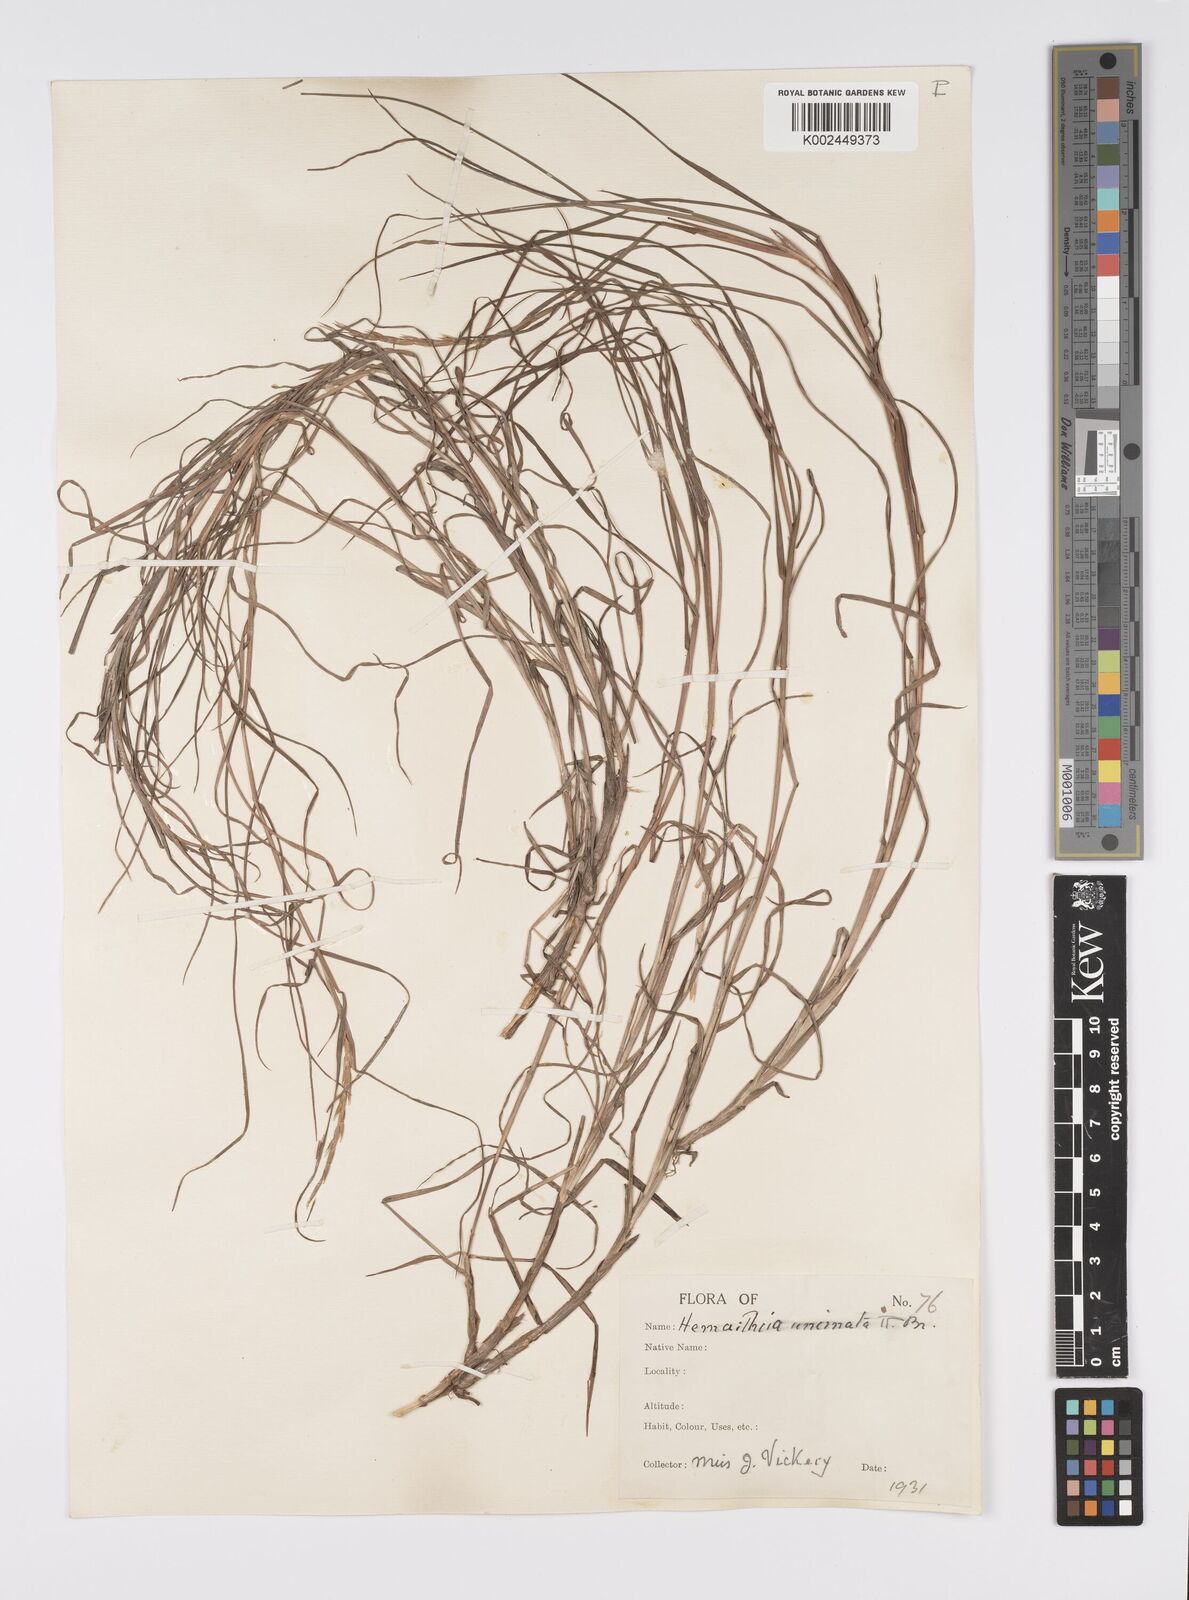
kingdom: Plantae
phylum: Tracheophyta
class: Liliopsida
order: Poales
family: Poaceae
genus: Hemarthria
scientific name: Hemarthria uncinata
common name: Matgrass
